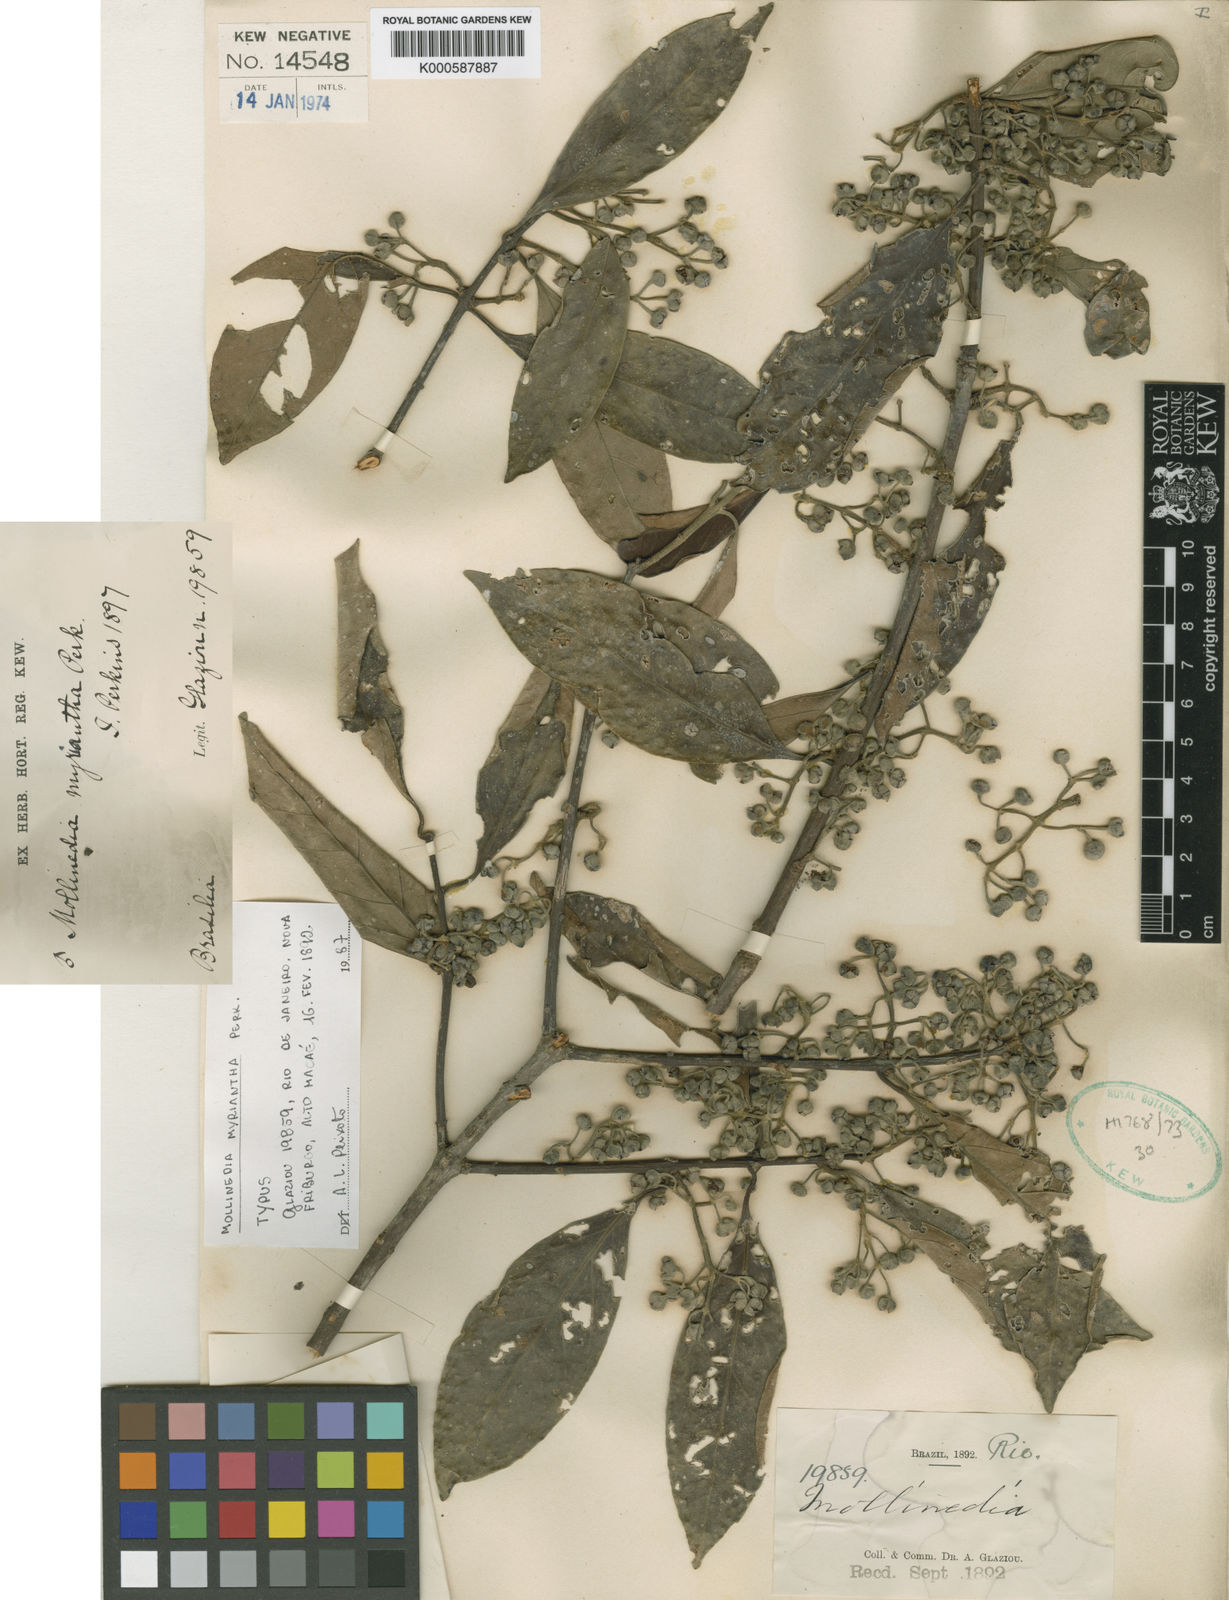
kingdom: Plantae
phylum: Tracheophyta
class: Magnoliopsida
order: Laurales
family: Monimiaceae
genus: Mollinedia
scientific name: Mollinedia myriantha
